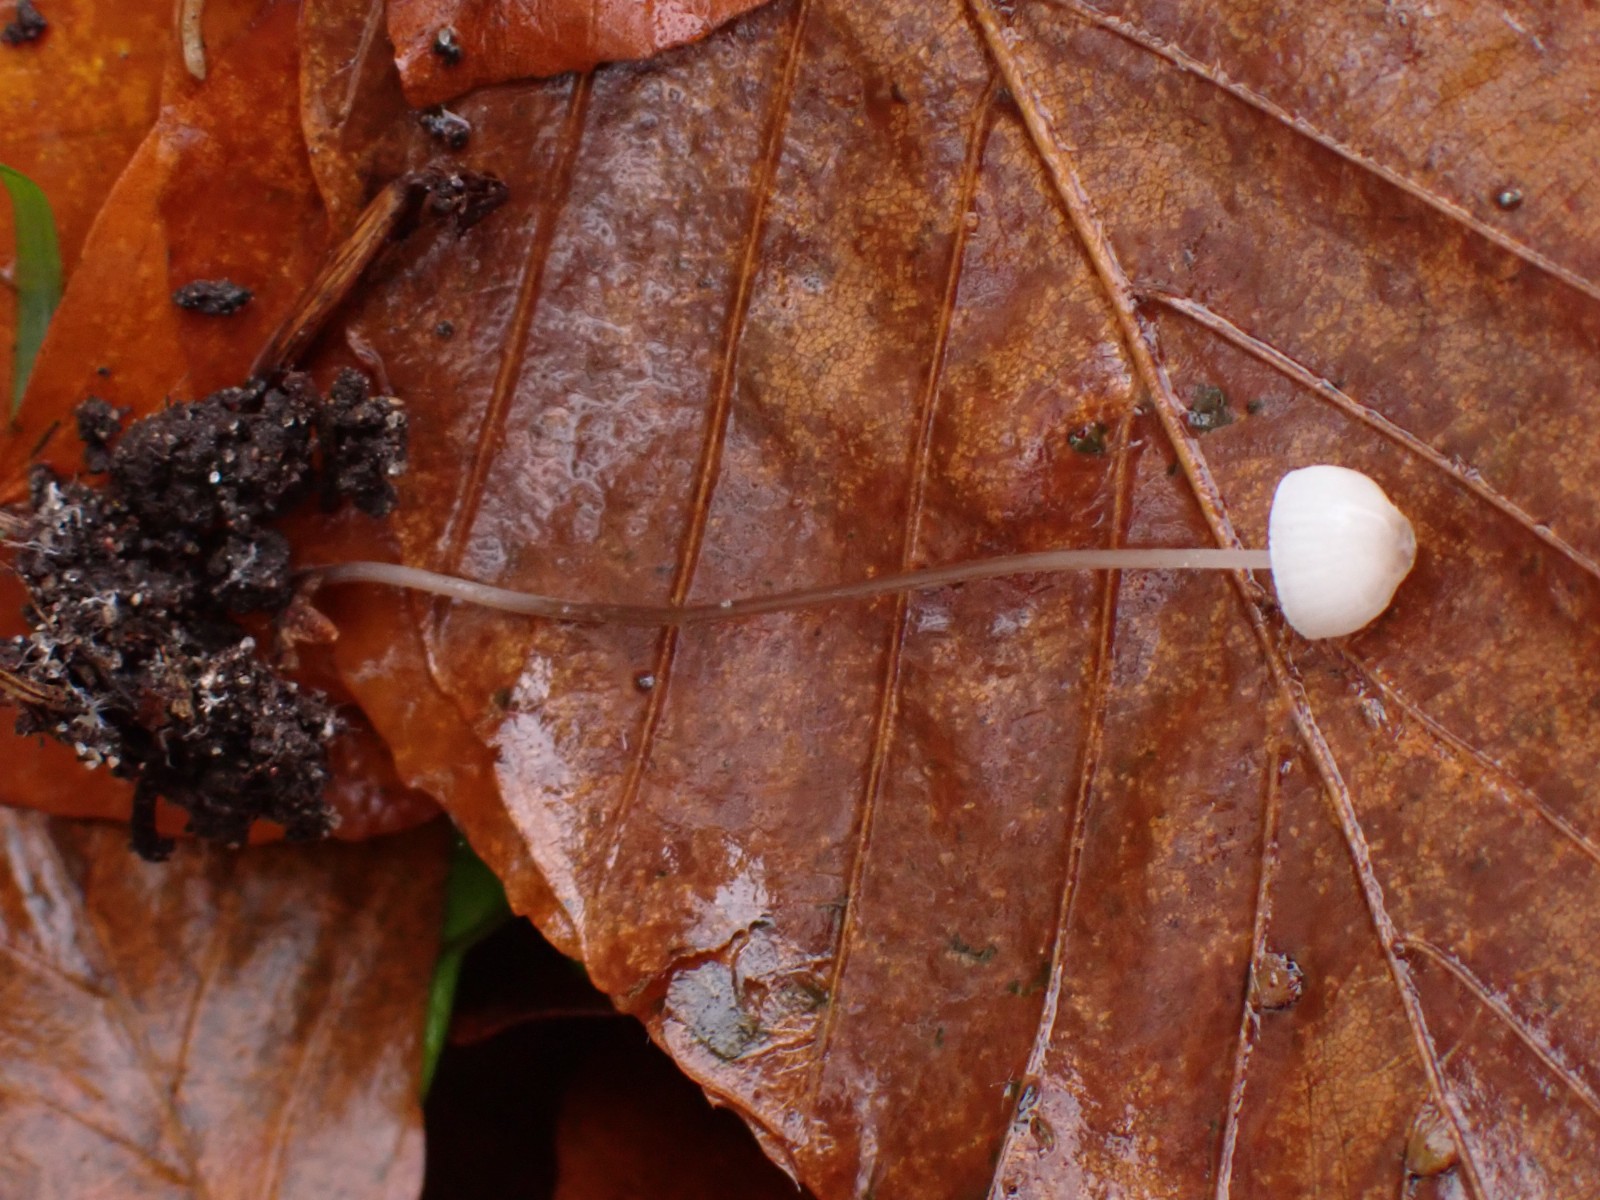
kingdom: Fungi
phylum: Basidiomycota
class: Agaricomycetes
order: Agaricales
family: Mycenaceae
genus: Mycena
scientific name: Mycena
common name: huesvamp
